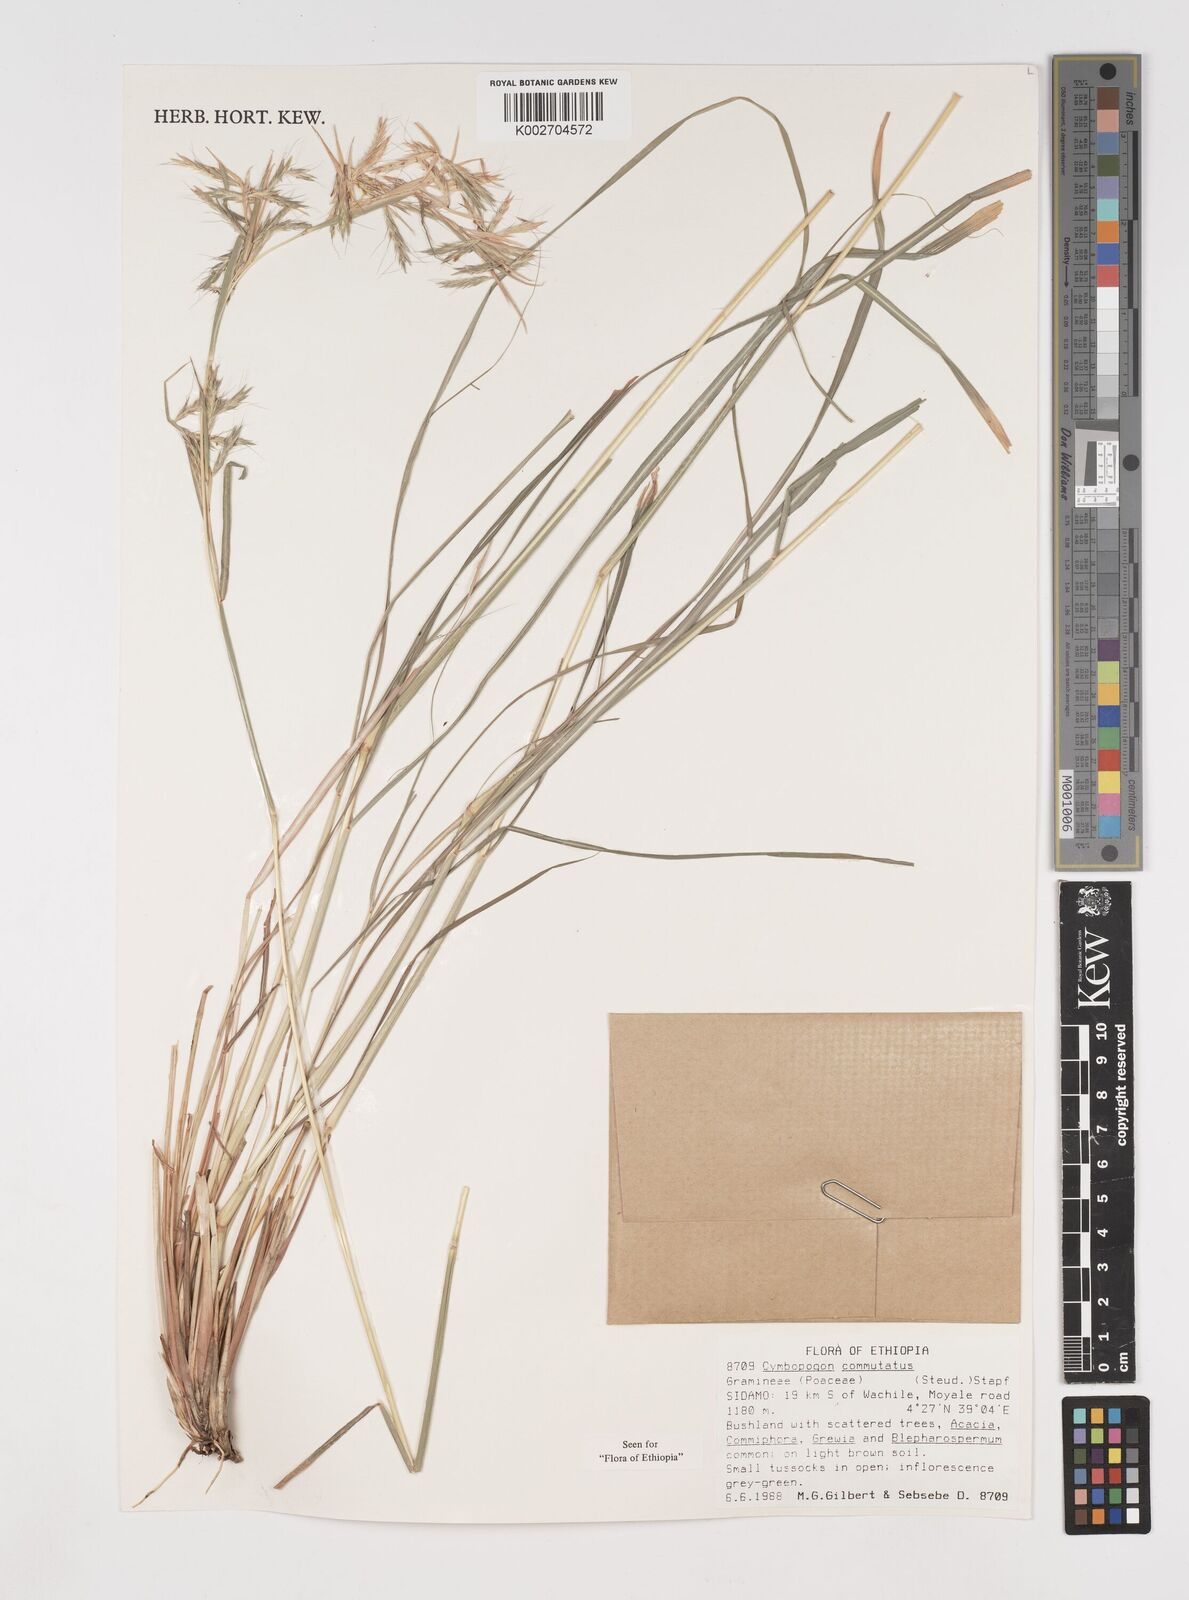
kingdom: Plantae
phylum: Tracheophyta
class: Liliopsida
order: Poales
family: Poaceae
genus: Cymbopogon
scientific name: Cymbopogon commutatus
